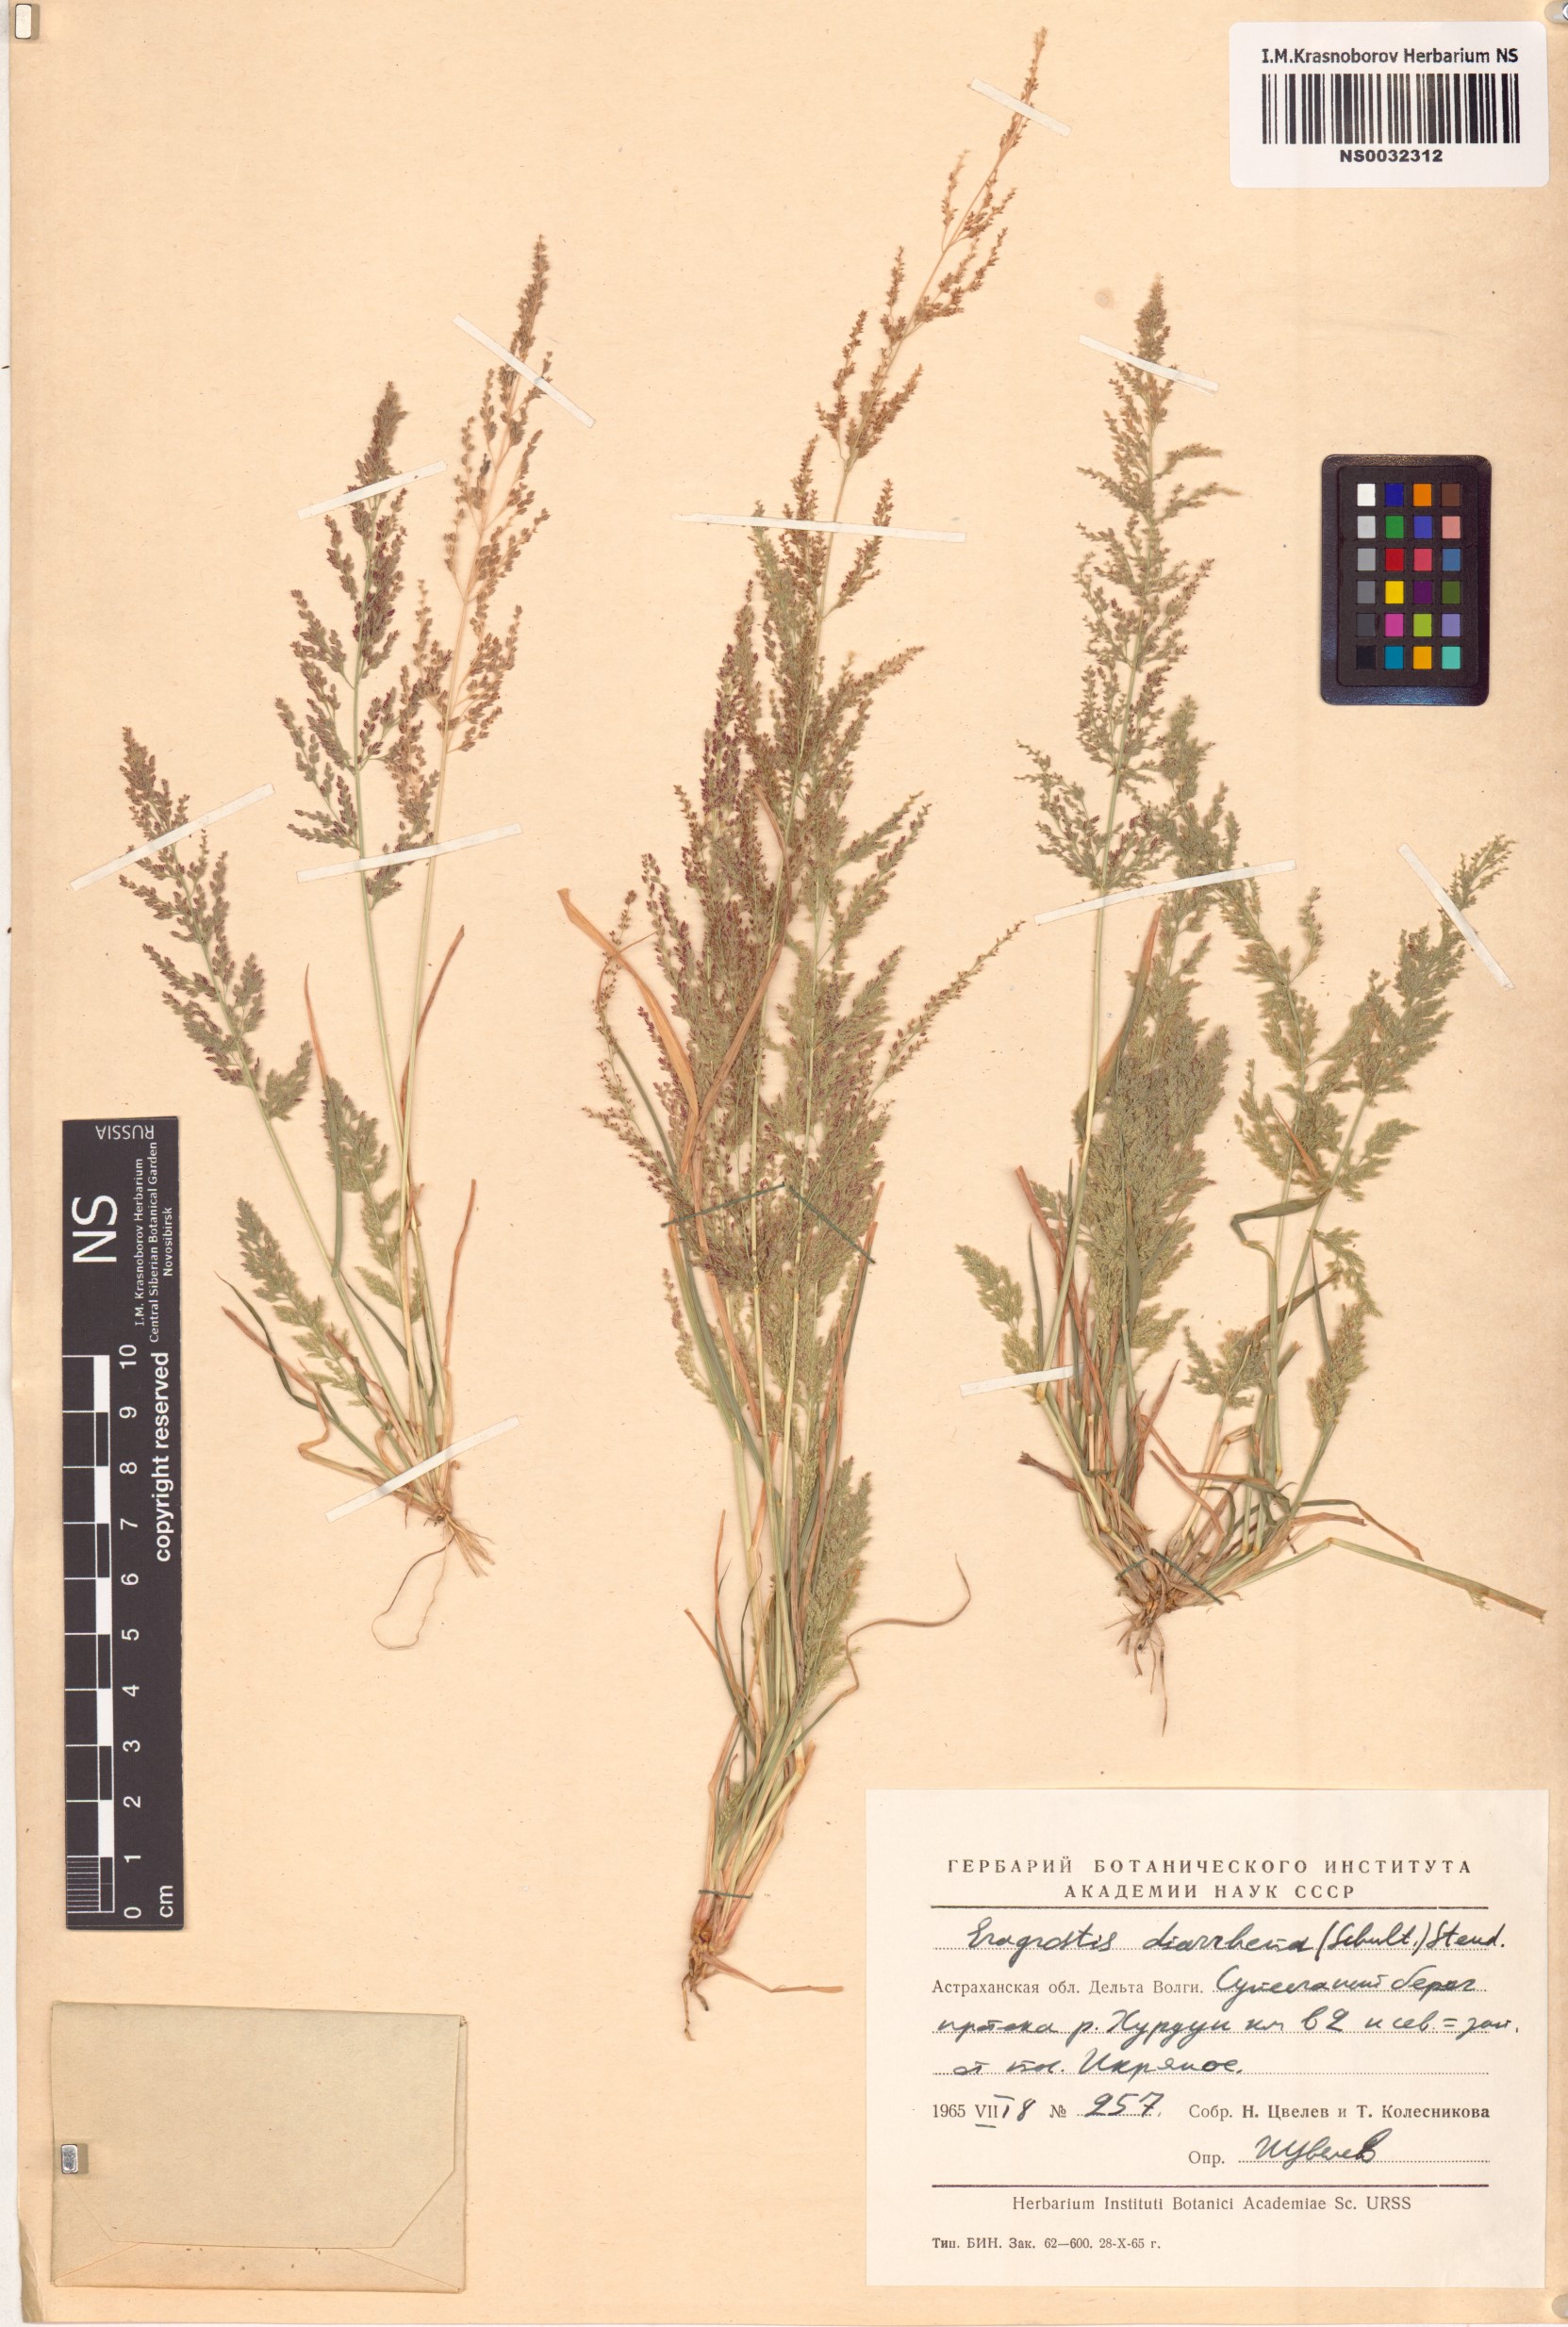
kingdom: Plantae
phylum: Tracheophyta
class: Liliopsida
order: Poales
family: Poaceae
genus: Eragrostis
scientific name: Eragrostis japonica
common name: Pond lovegrass
